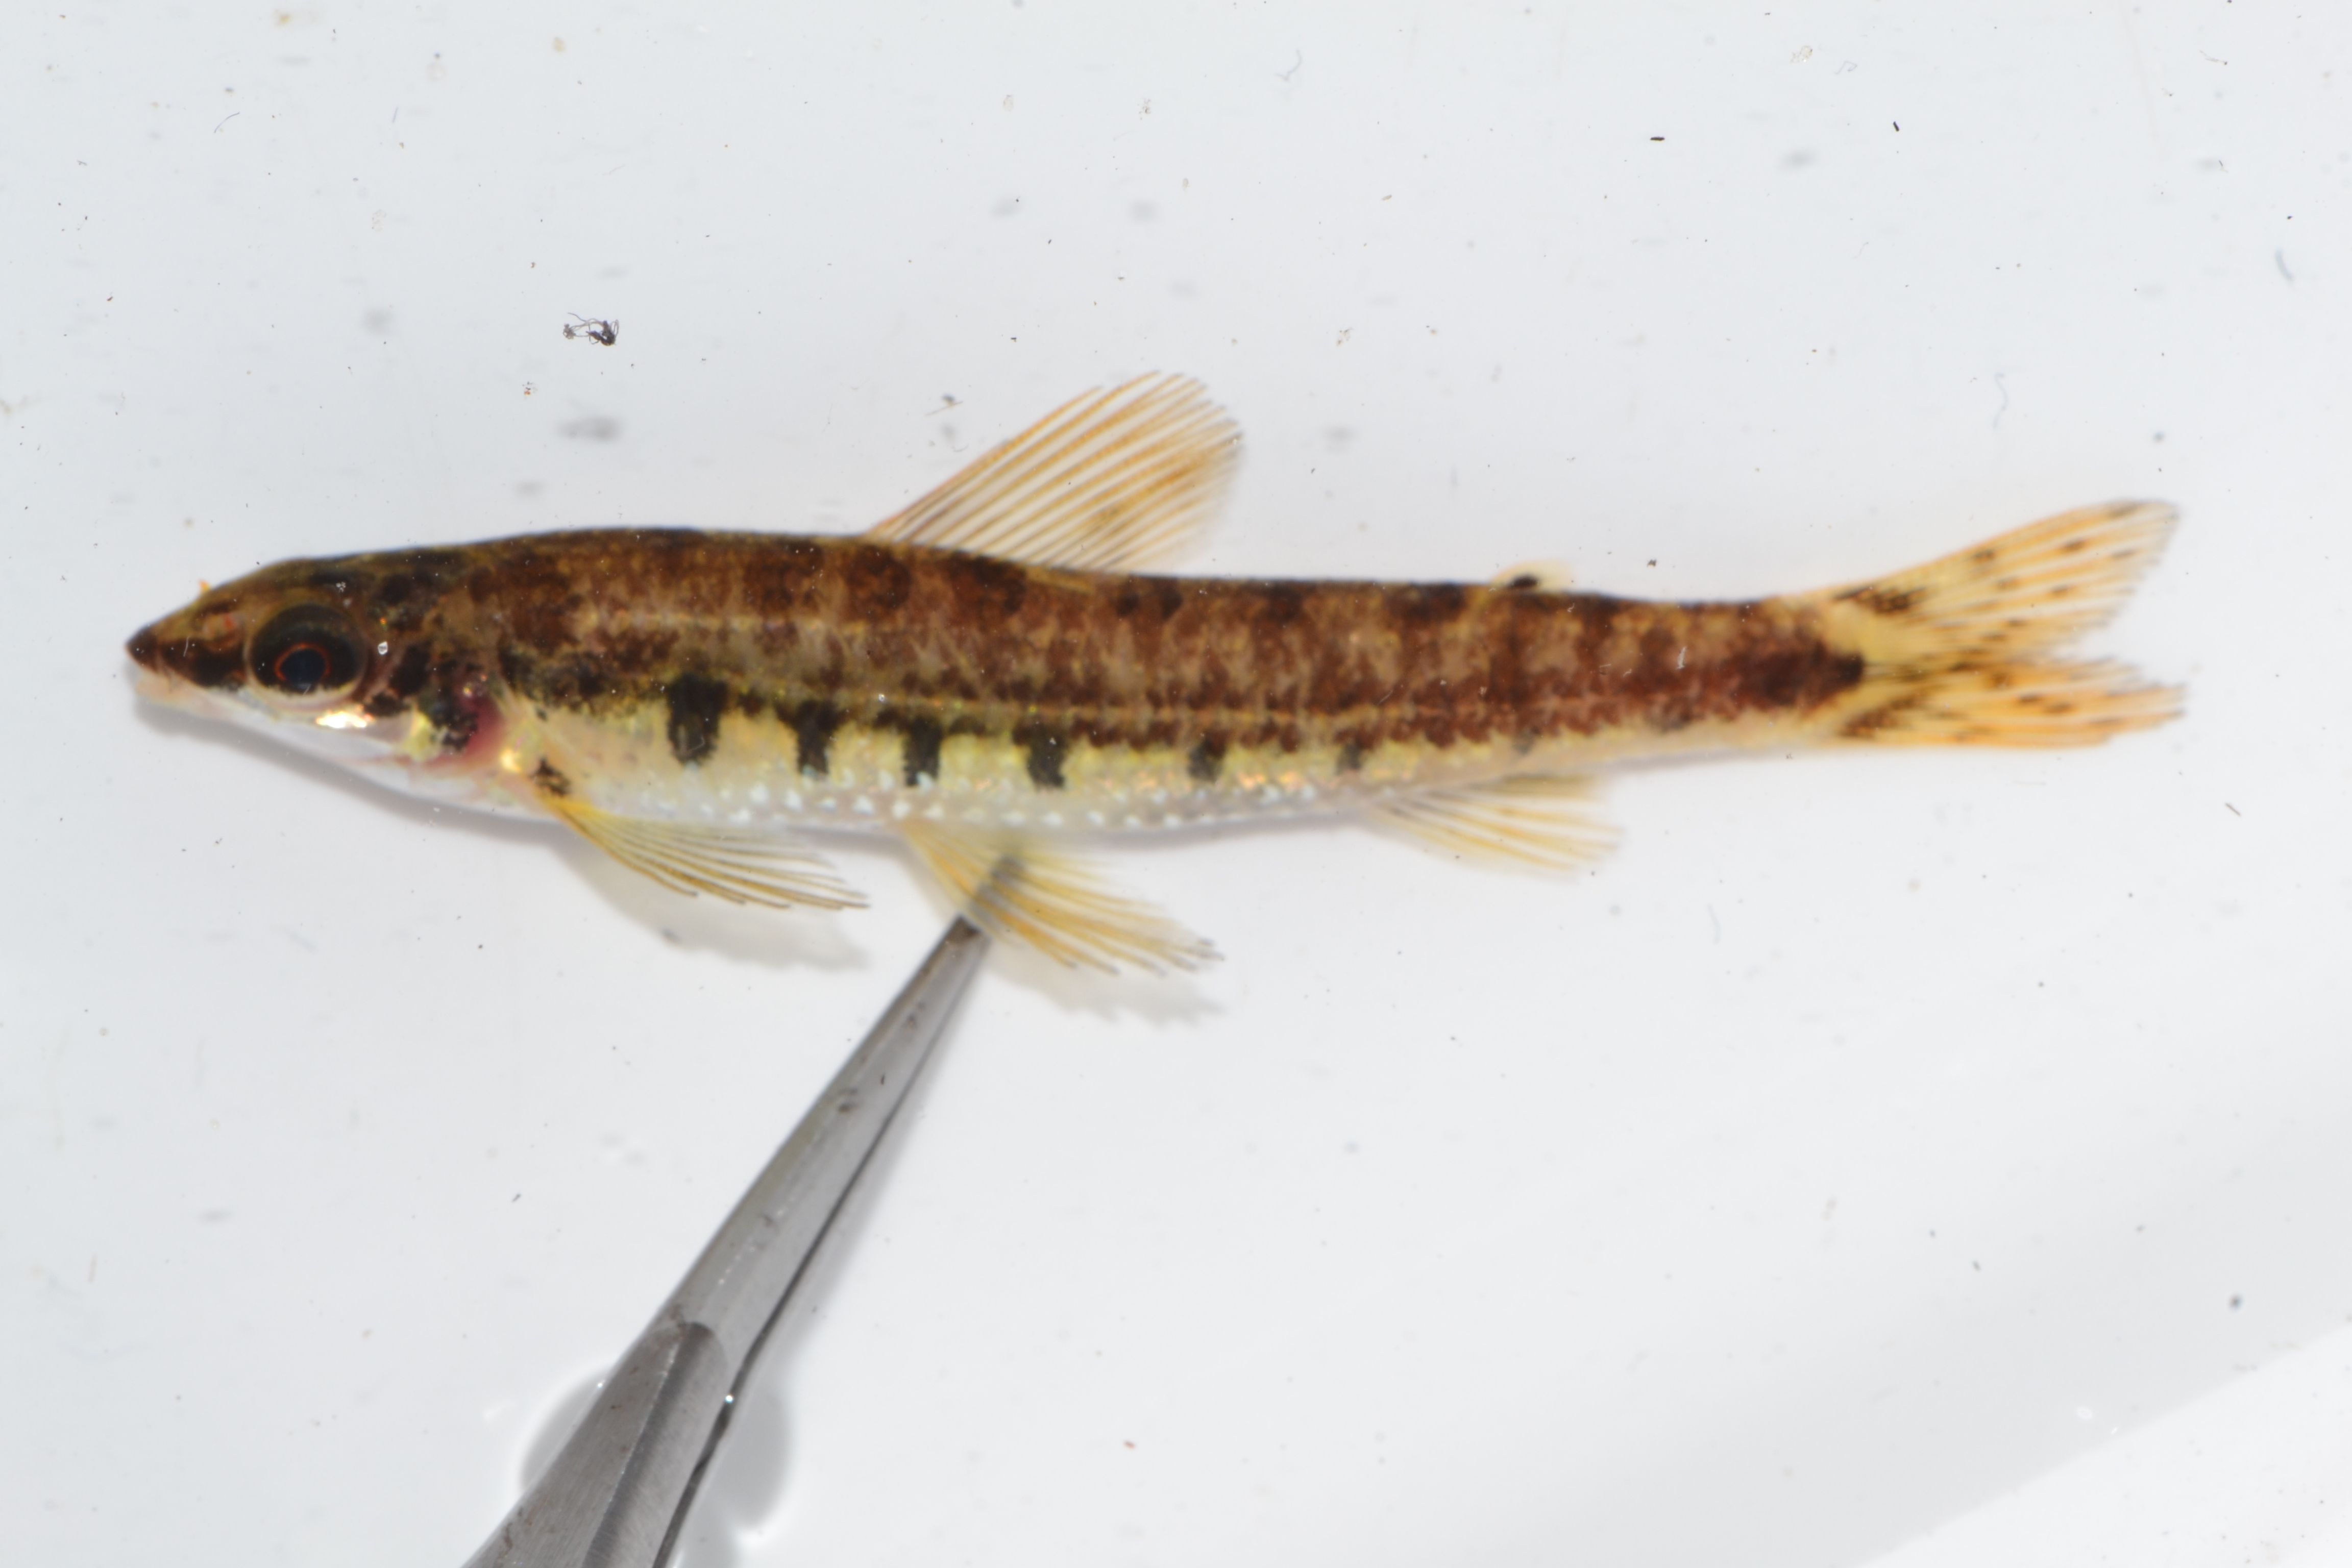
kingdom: Animalia
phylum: Chordata
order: Characiformes
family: Distichodontidae
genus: Nannocharax
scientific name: Nannocharax macropterus
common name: Broad-barred citharine
